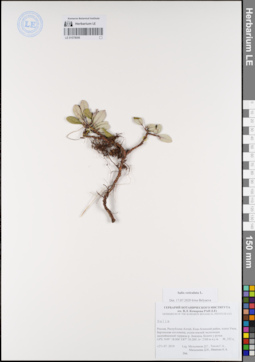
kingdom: Plantae
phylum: Tracheophyta
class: Magnoliopsida
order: Malpighiales
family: Salicaceae
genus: Salix
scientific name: Salix reticulata
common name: Net-leaved willow
